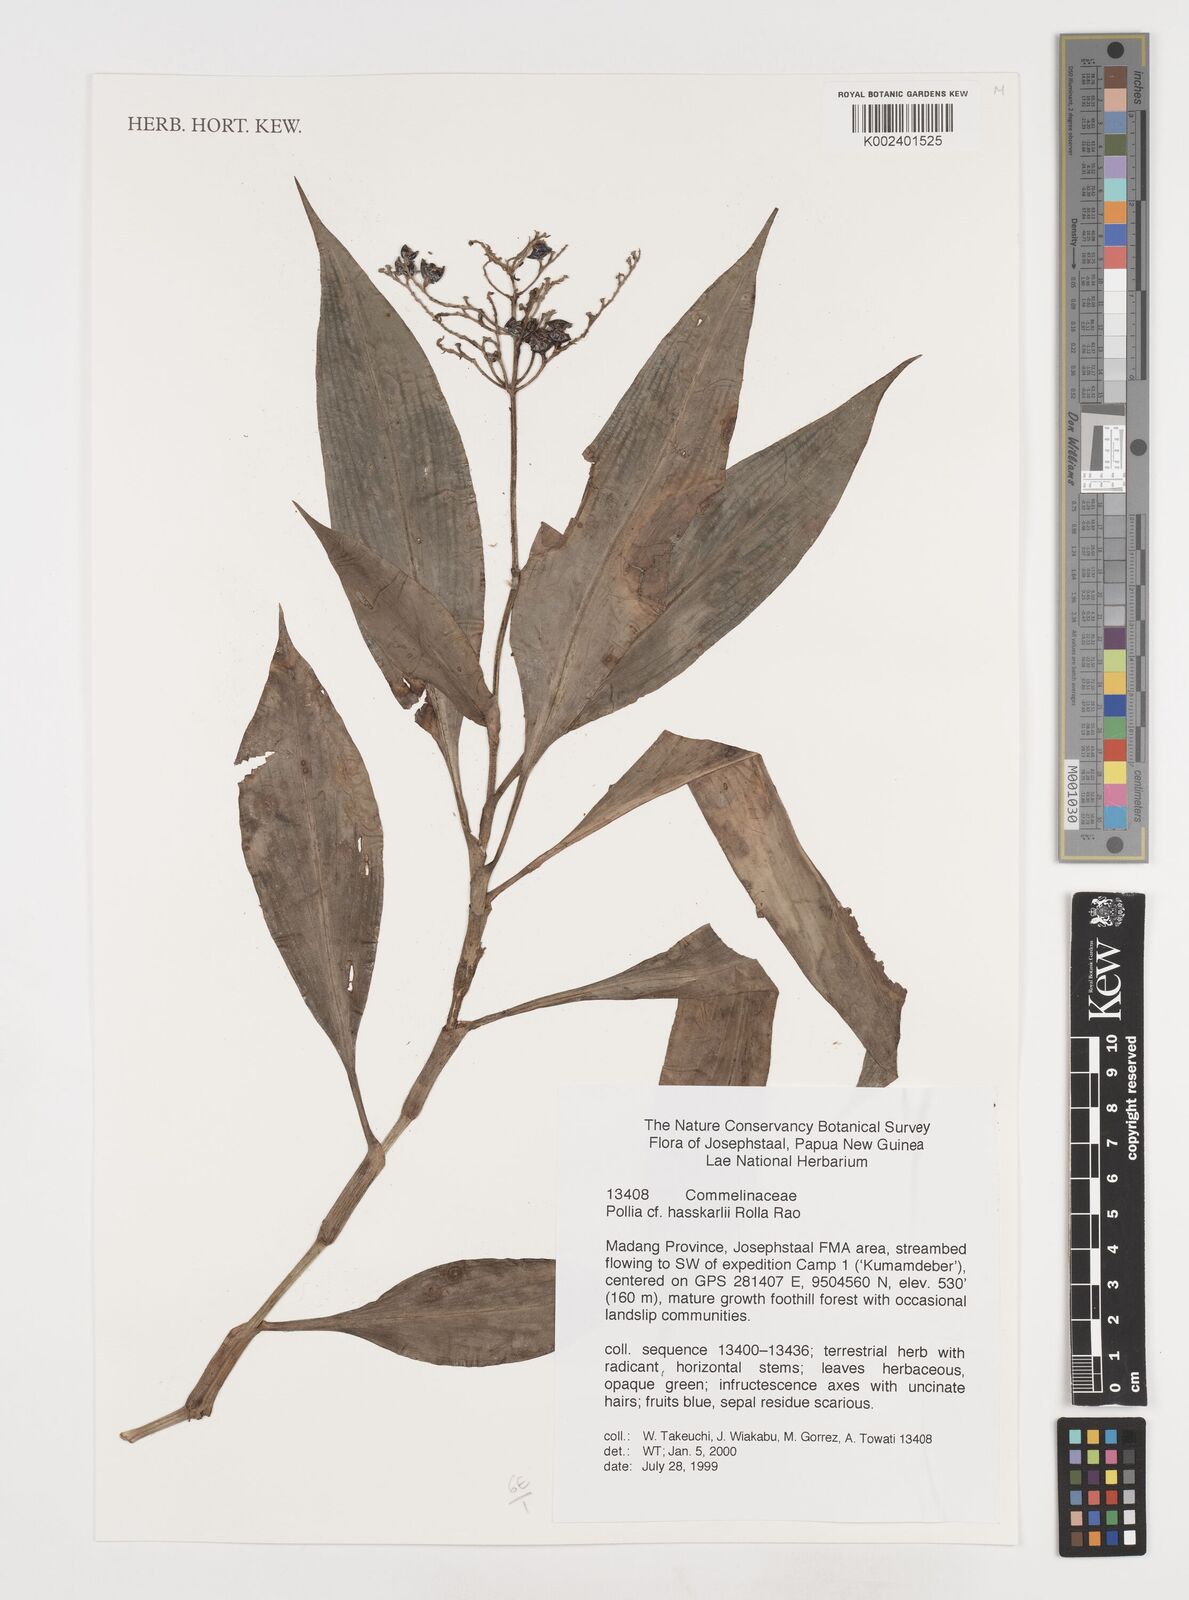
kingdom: Plantae
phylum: Tracheophyta
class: Liliopsida
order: Commelinales
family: Commelinaceae
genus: Pollia
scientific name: Pollia hasskarlii
